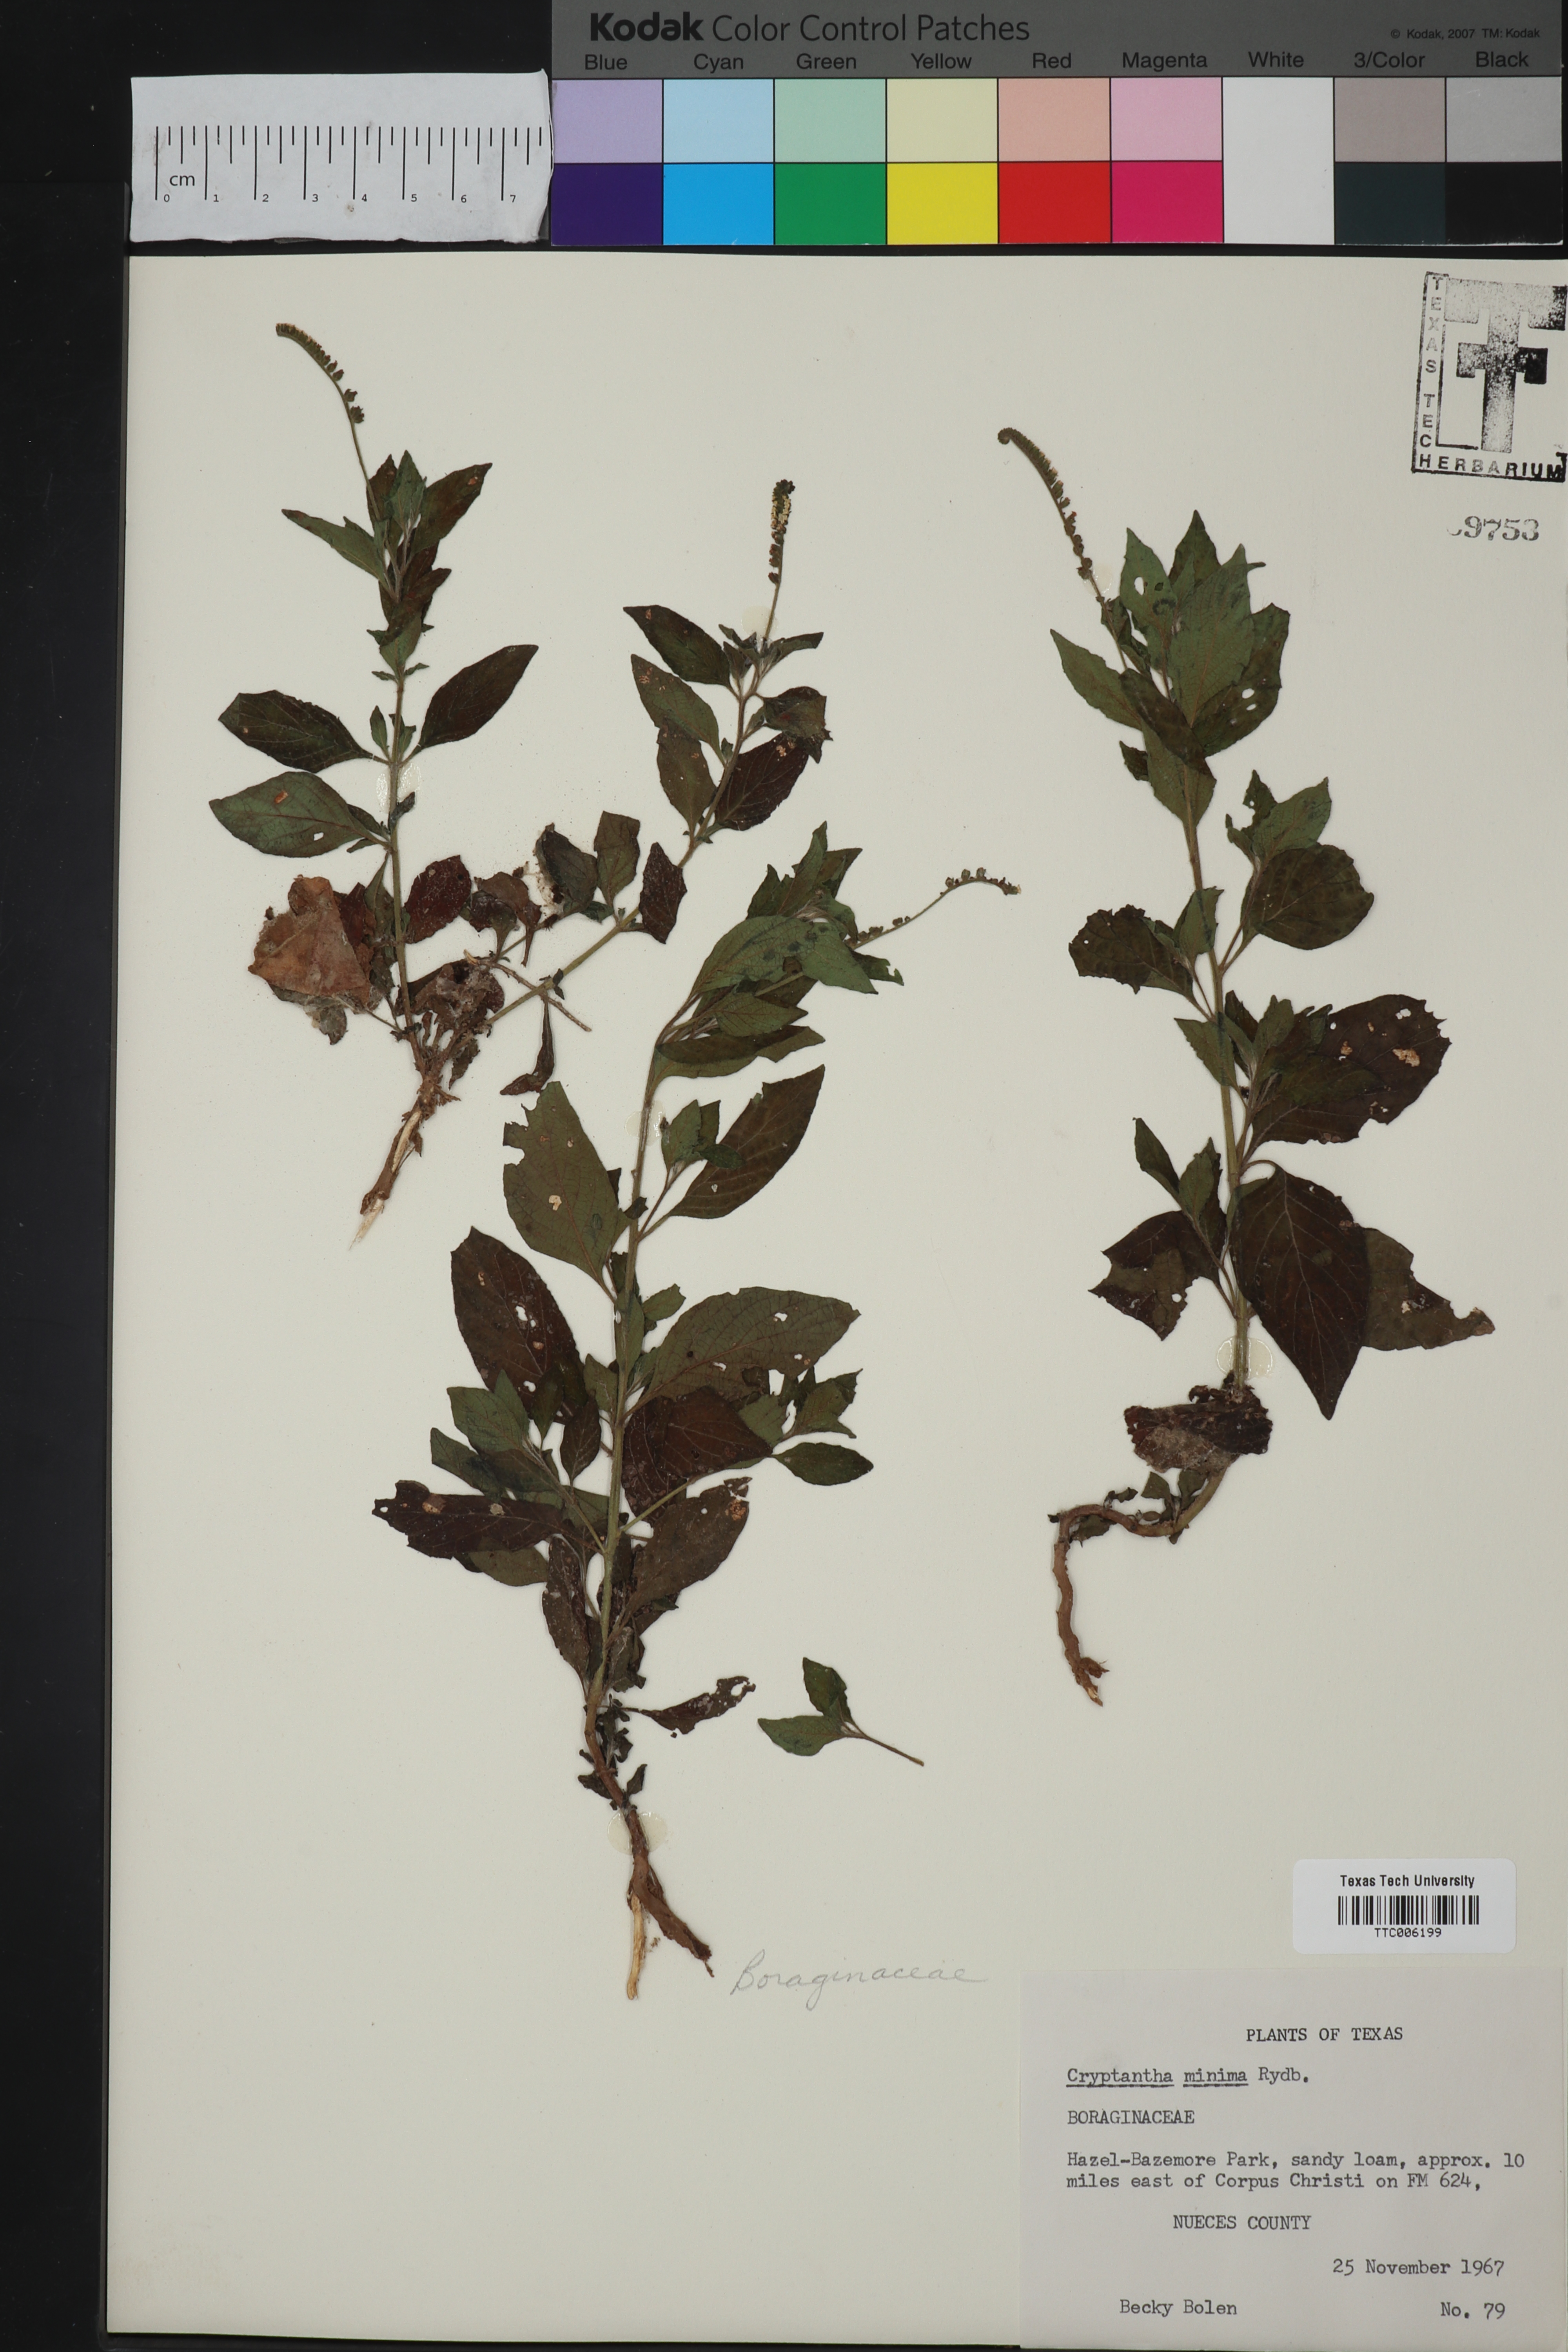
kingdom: Plantae
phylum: Tracheophyta
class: Magnoliopsida
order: Boraginales
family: Boraginaceae
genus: Cryptantha
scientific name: Cryptantha minima
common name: Little cat's-eye
